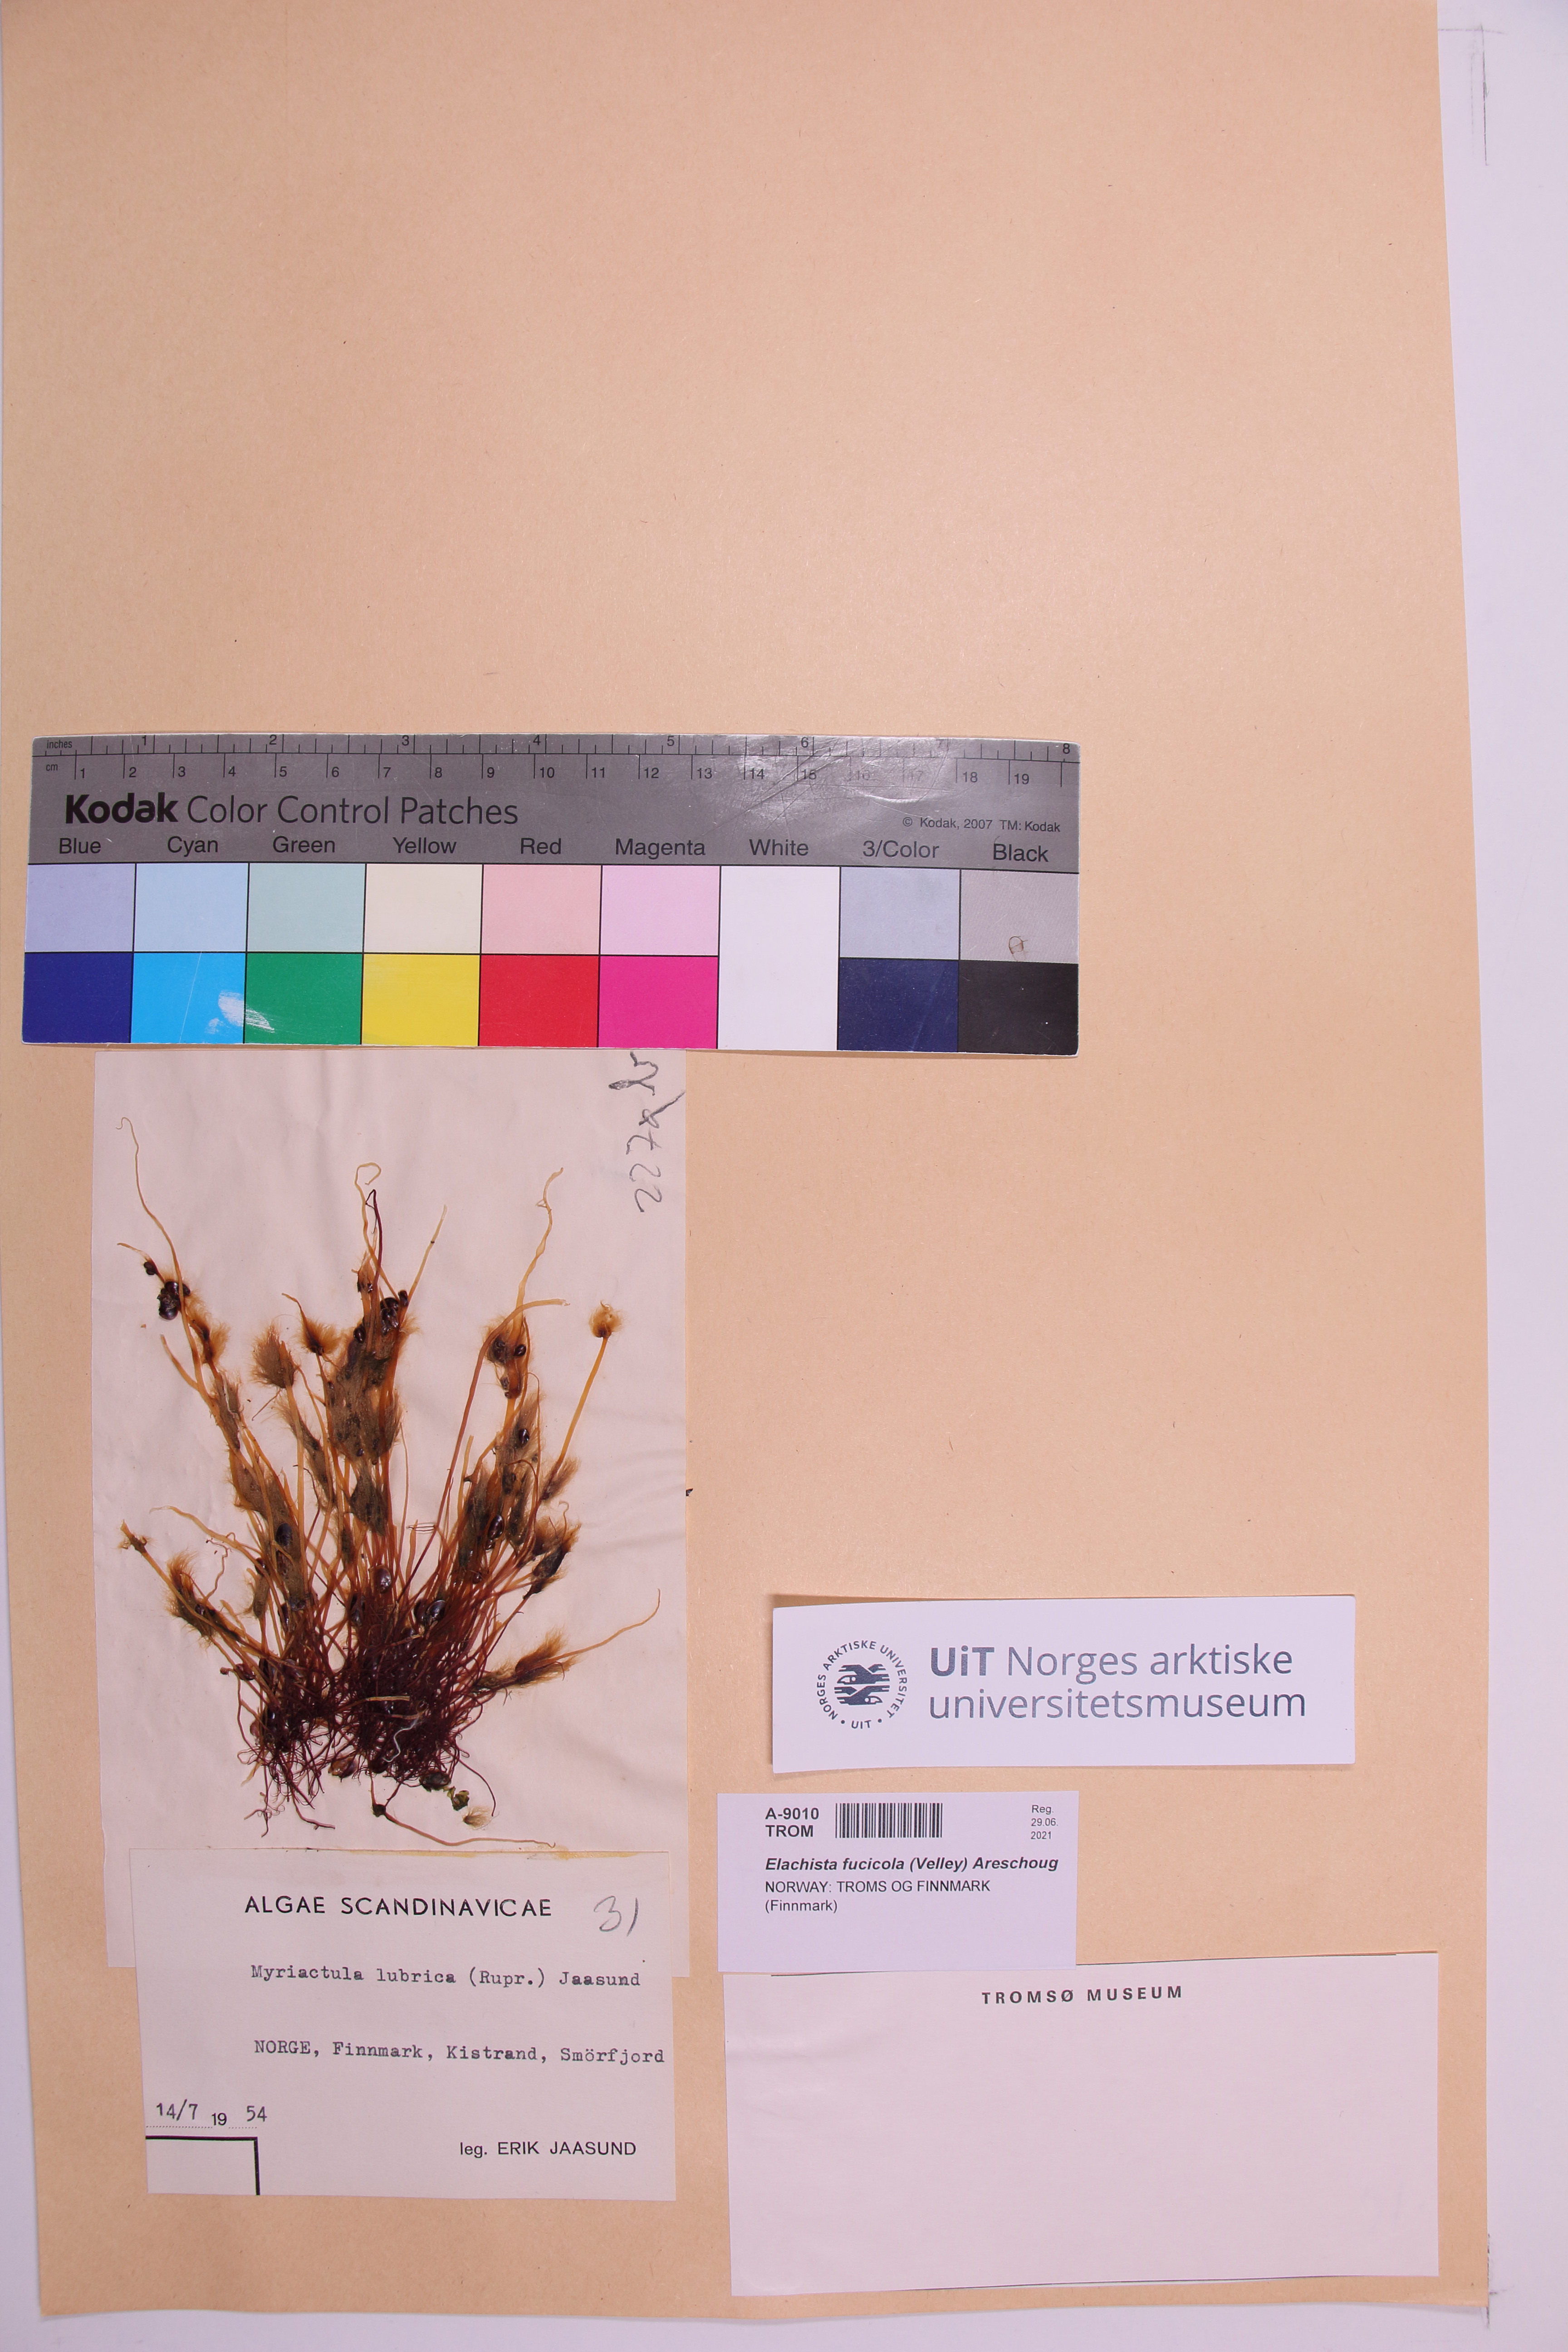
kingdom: Chromista
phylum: Ochrophyta
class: Phaeophyceae
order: Ectocarpales
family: Chordariaceae
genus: Elachista
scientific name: Elachista fucicola
